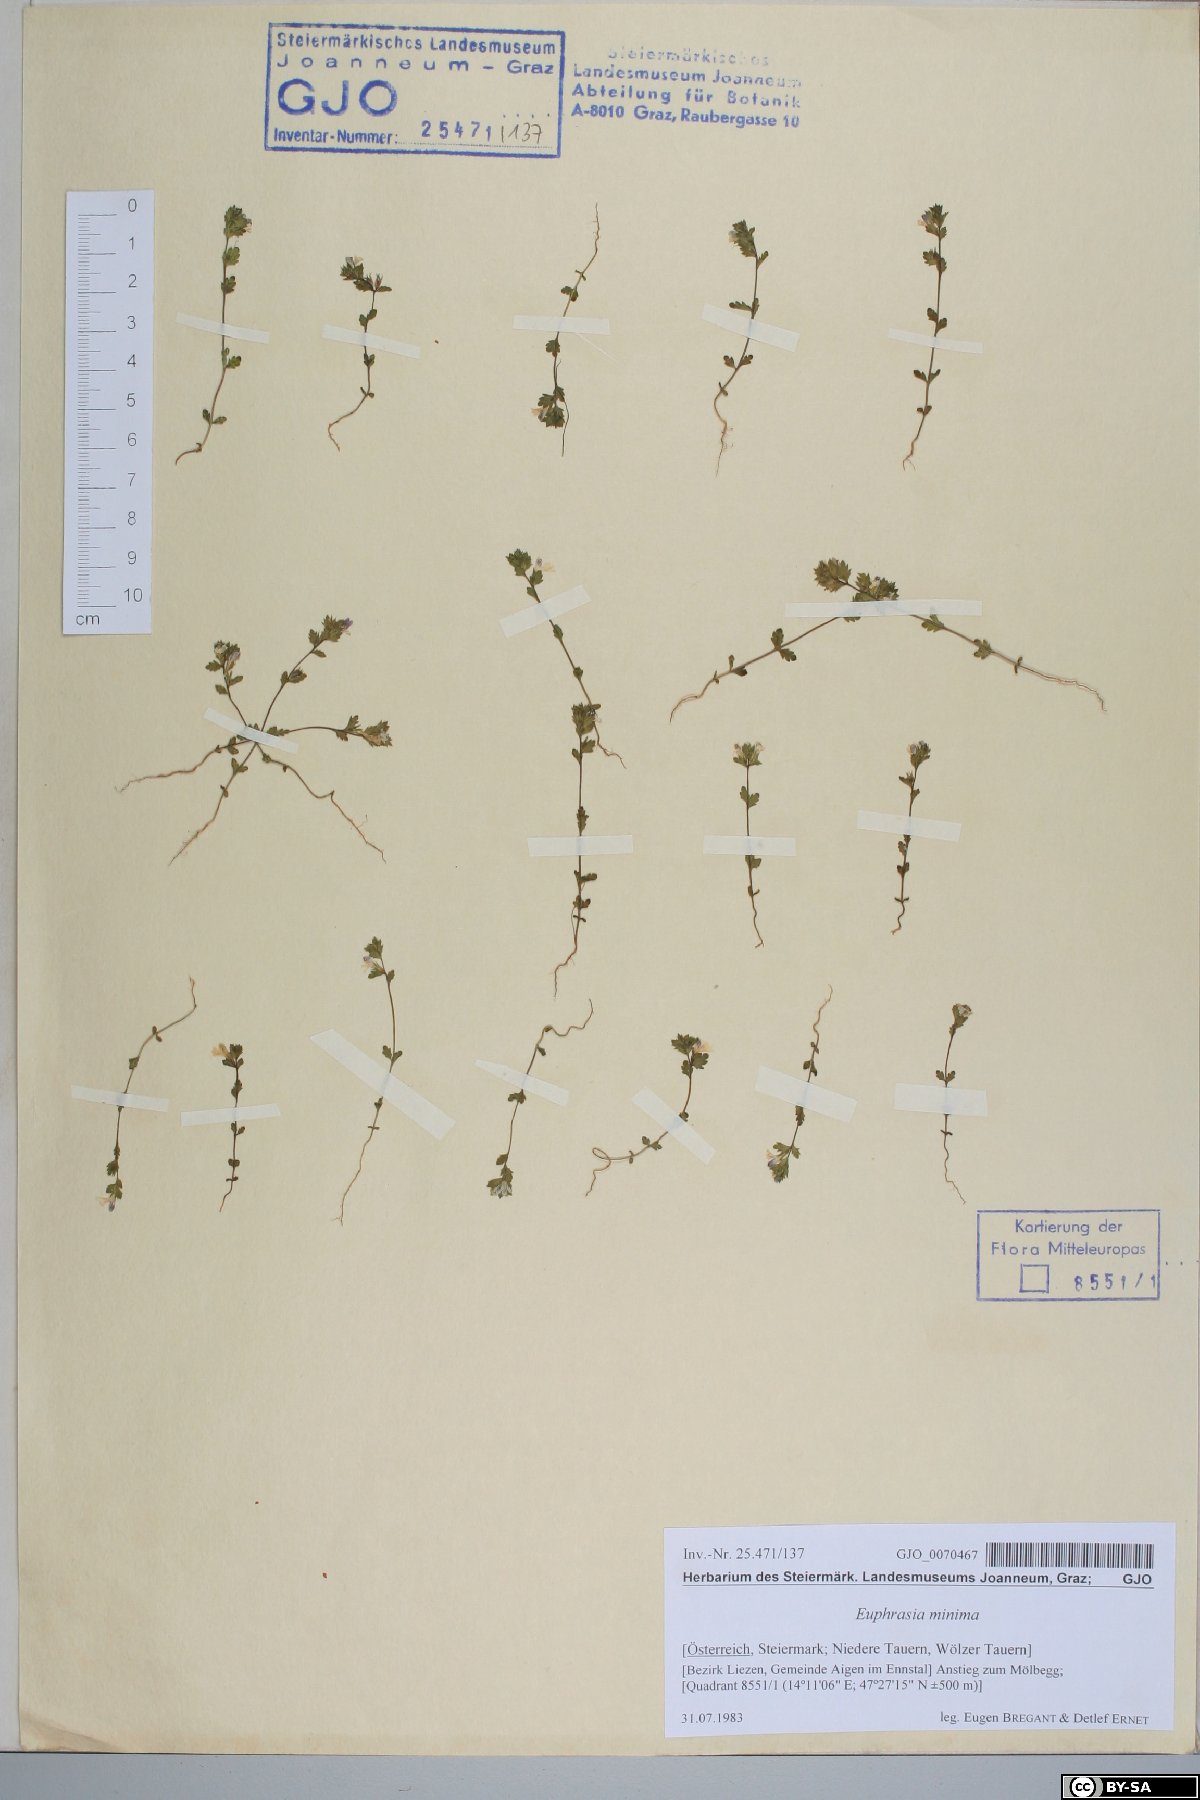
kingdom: Plantae
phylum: Tracheophyta
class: Magnoliopsida
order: Lamiales
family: Orobanchaceae
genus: Euphrasia
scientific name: Euphrasia minima
